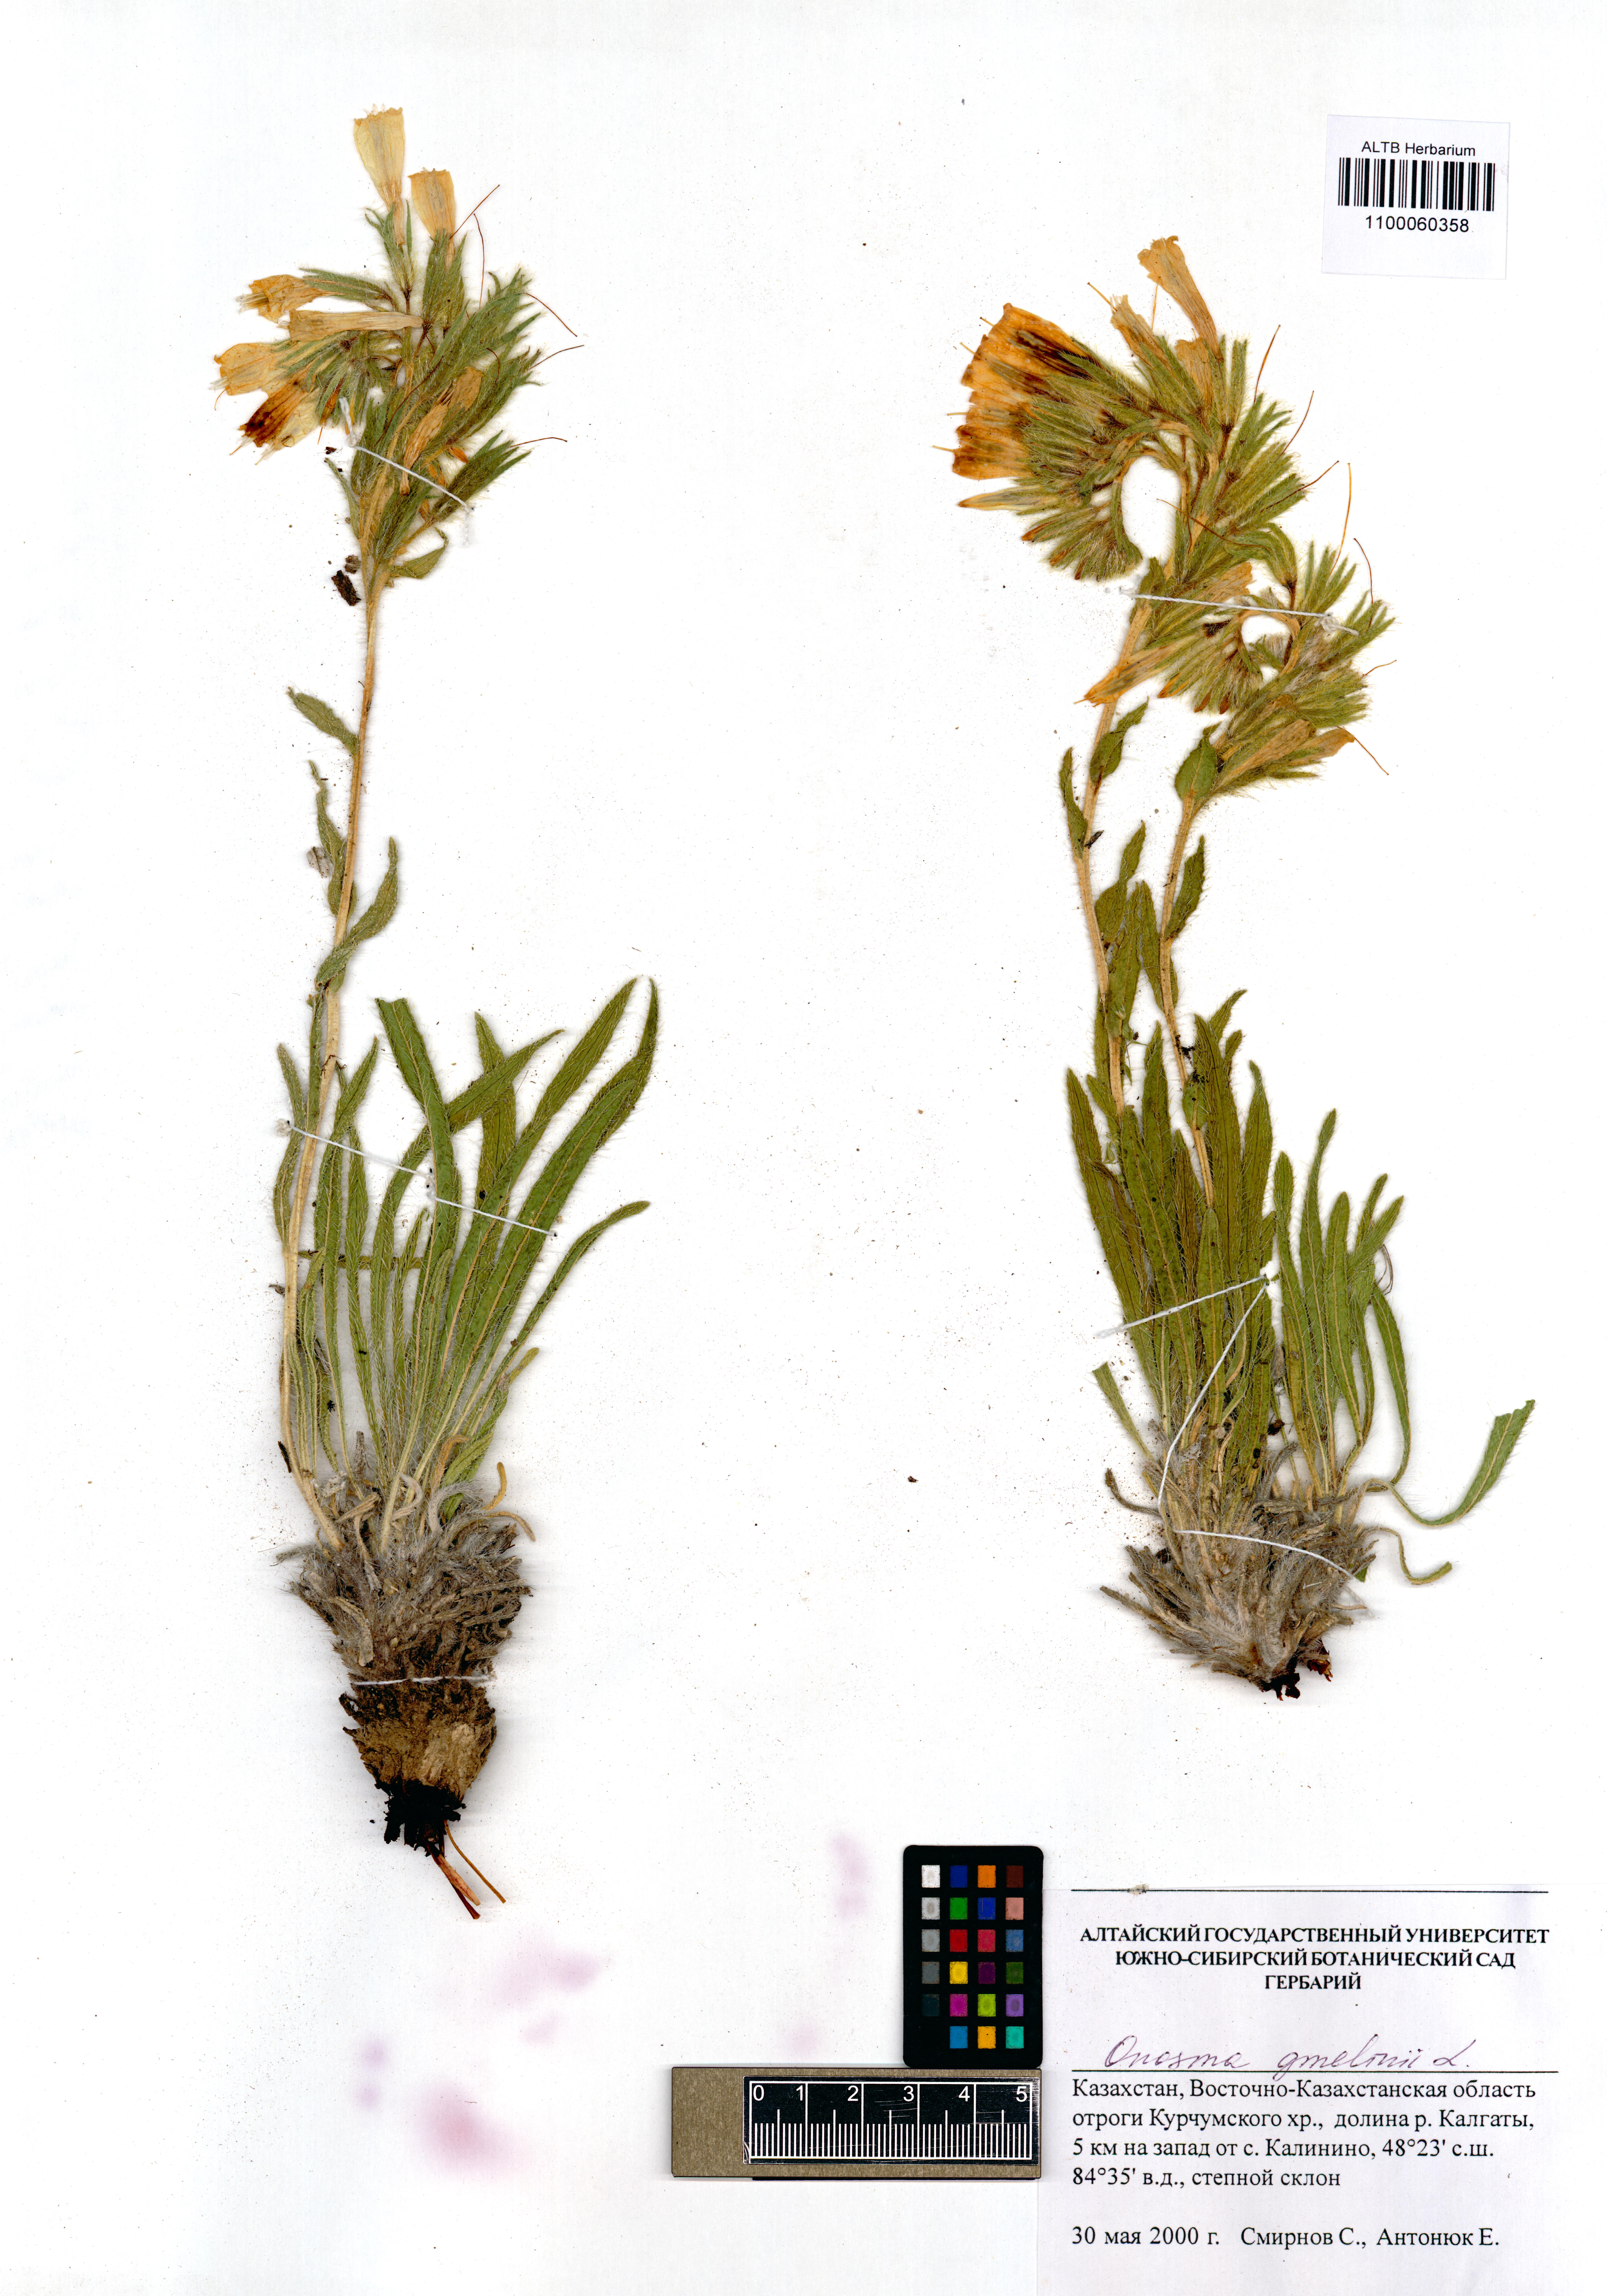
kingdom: Plantae
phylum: Tracheophyta
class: Magnoliopsida
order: Boraginales
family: Boraginaceae
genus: Onosma
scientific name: Onosma gmelinii
